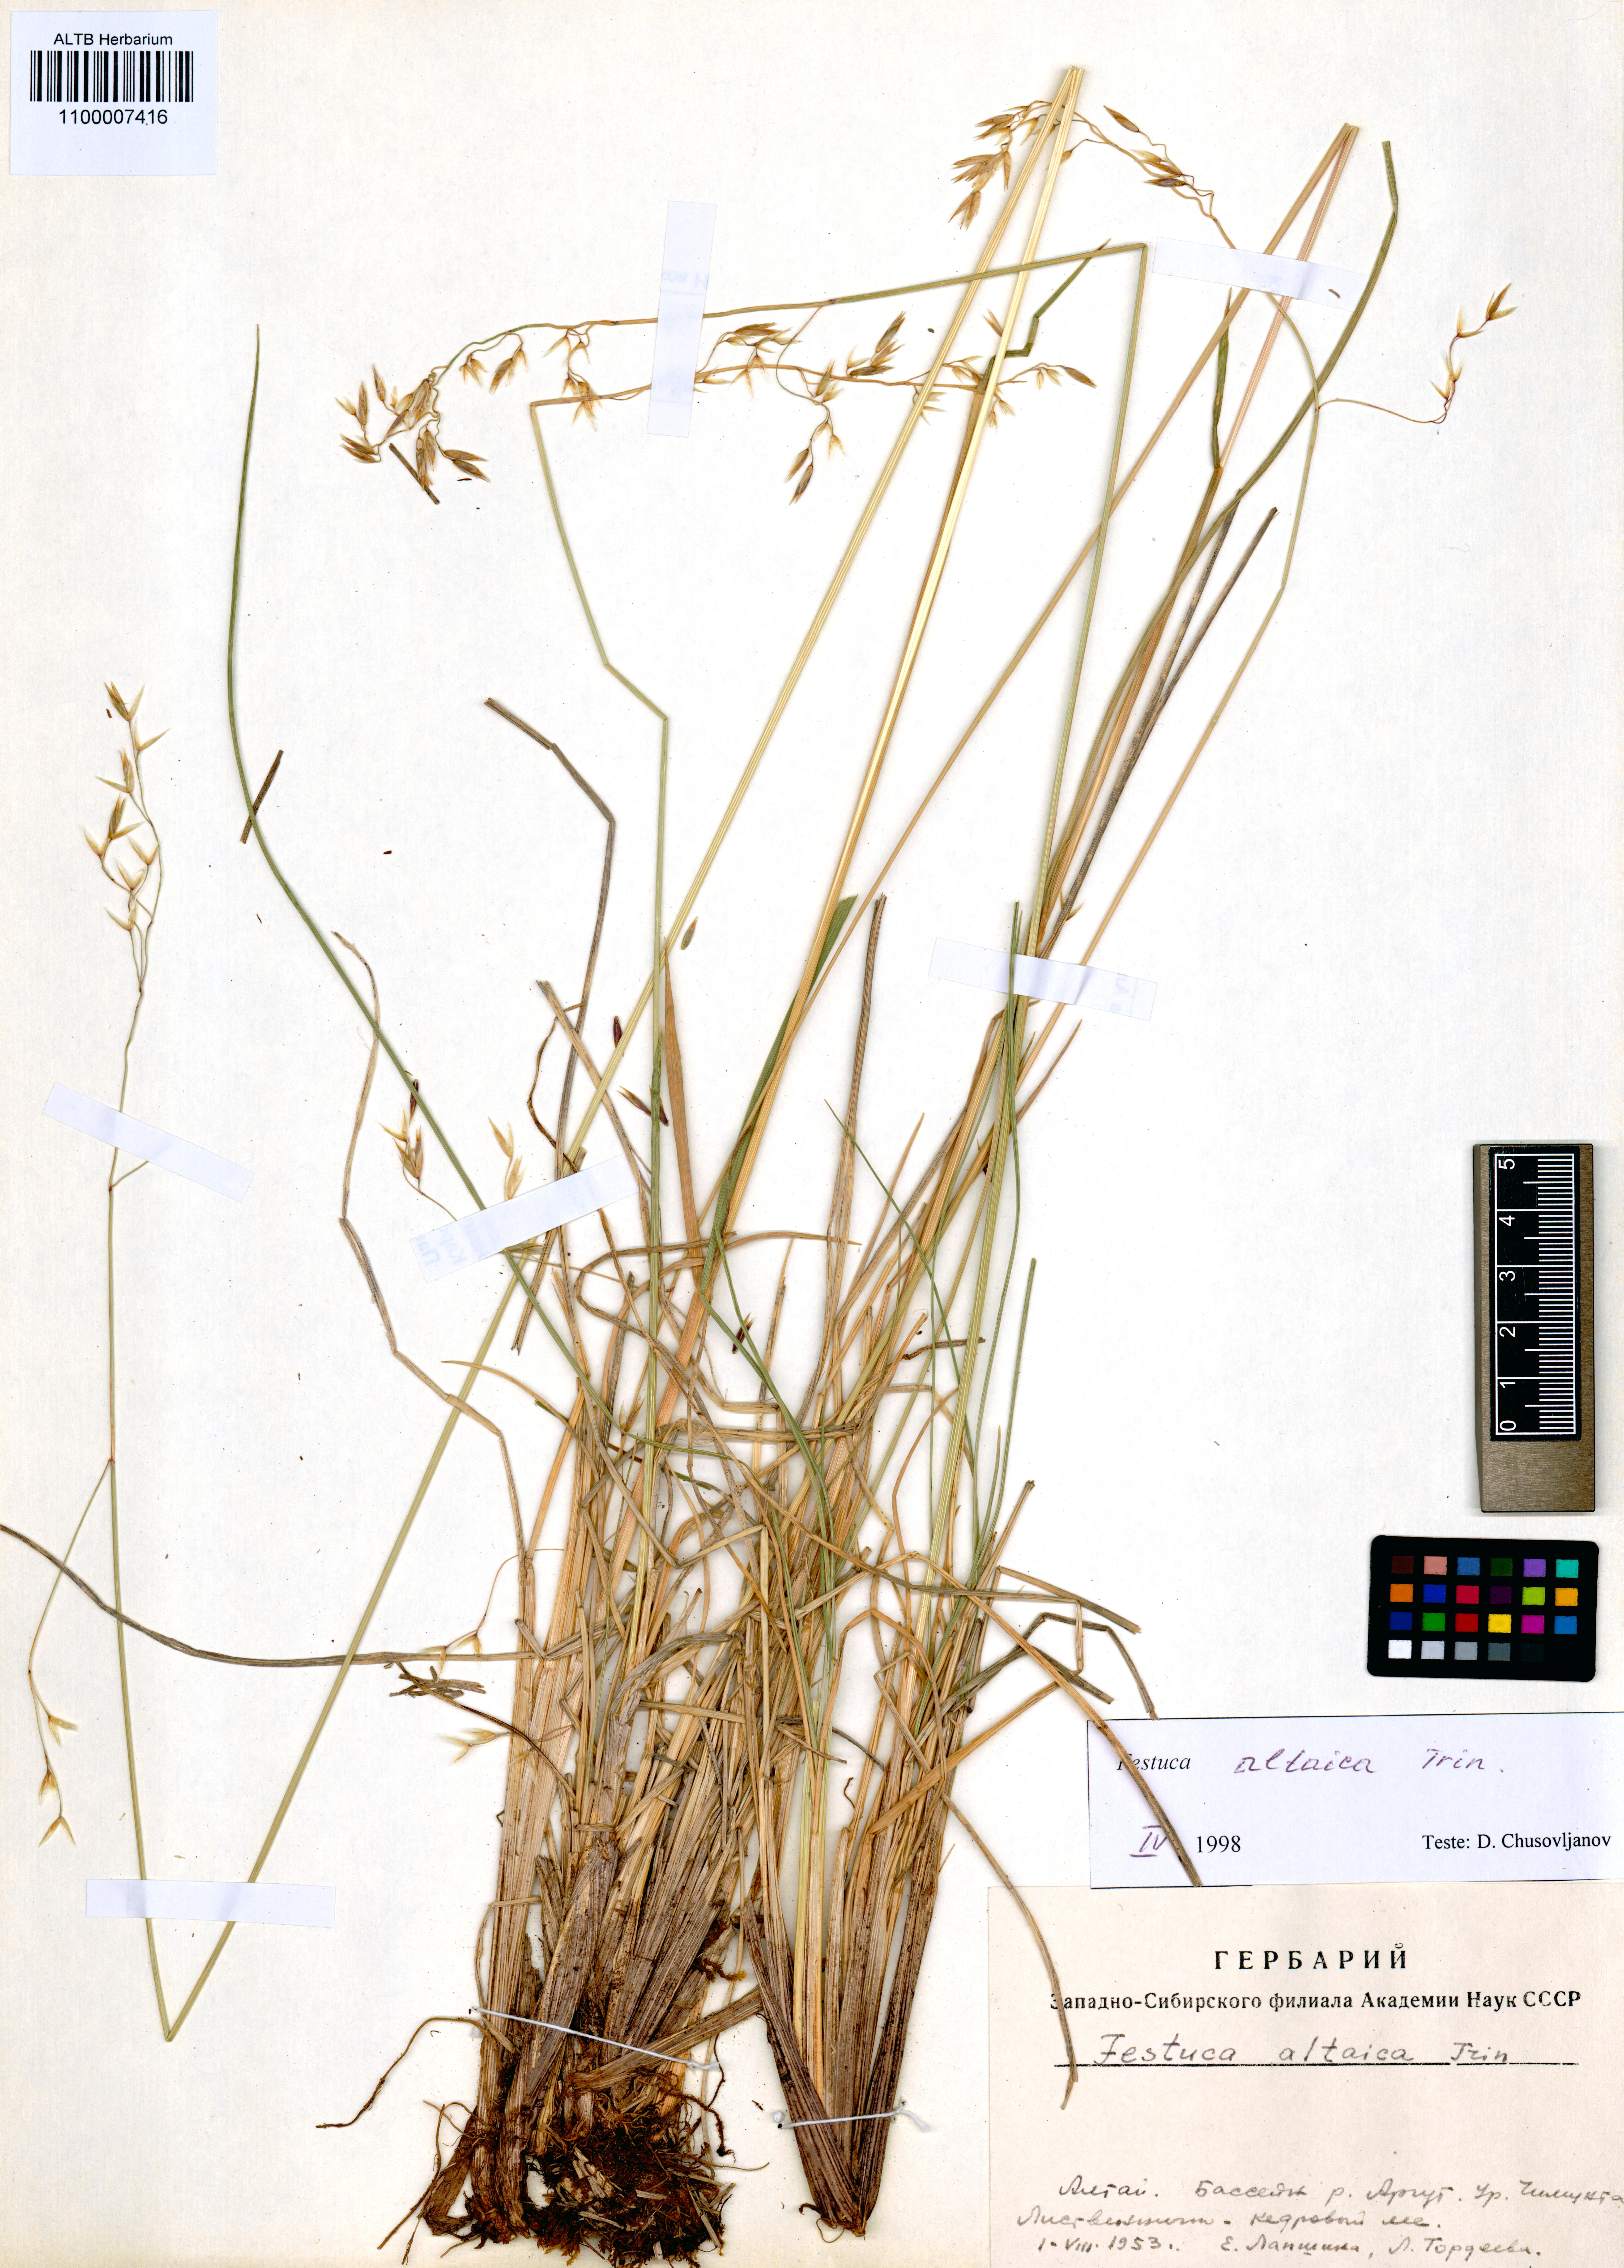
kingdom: Plantae
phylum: Tracheophyta
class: Liliopsida
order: Poales
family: Poaceae
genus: Festuca
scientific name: Festuca altaica
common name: Northern rough fescue
